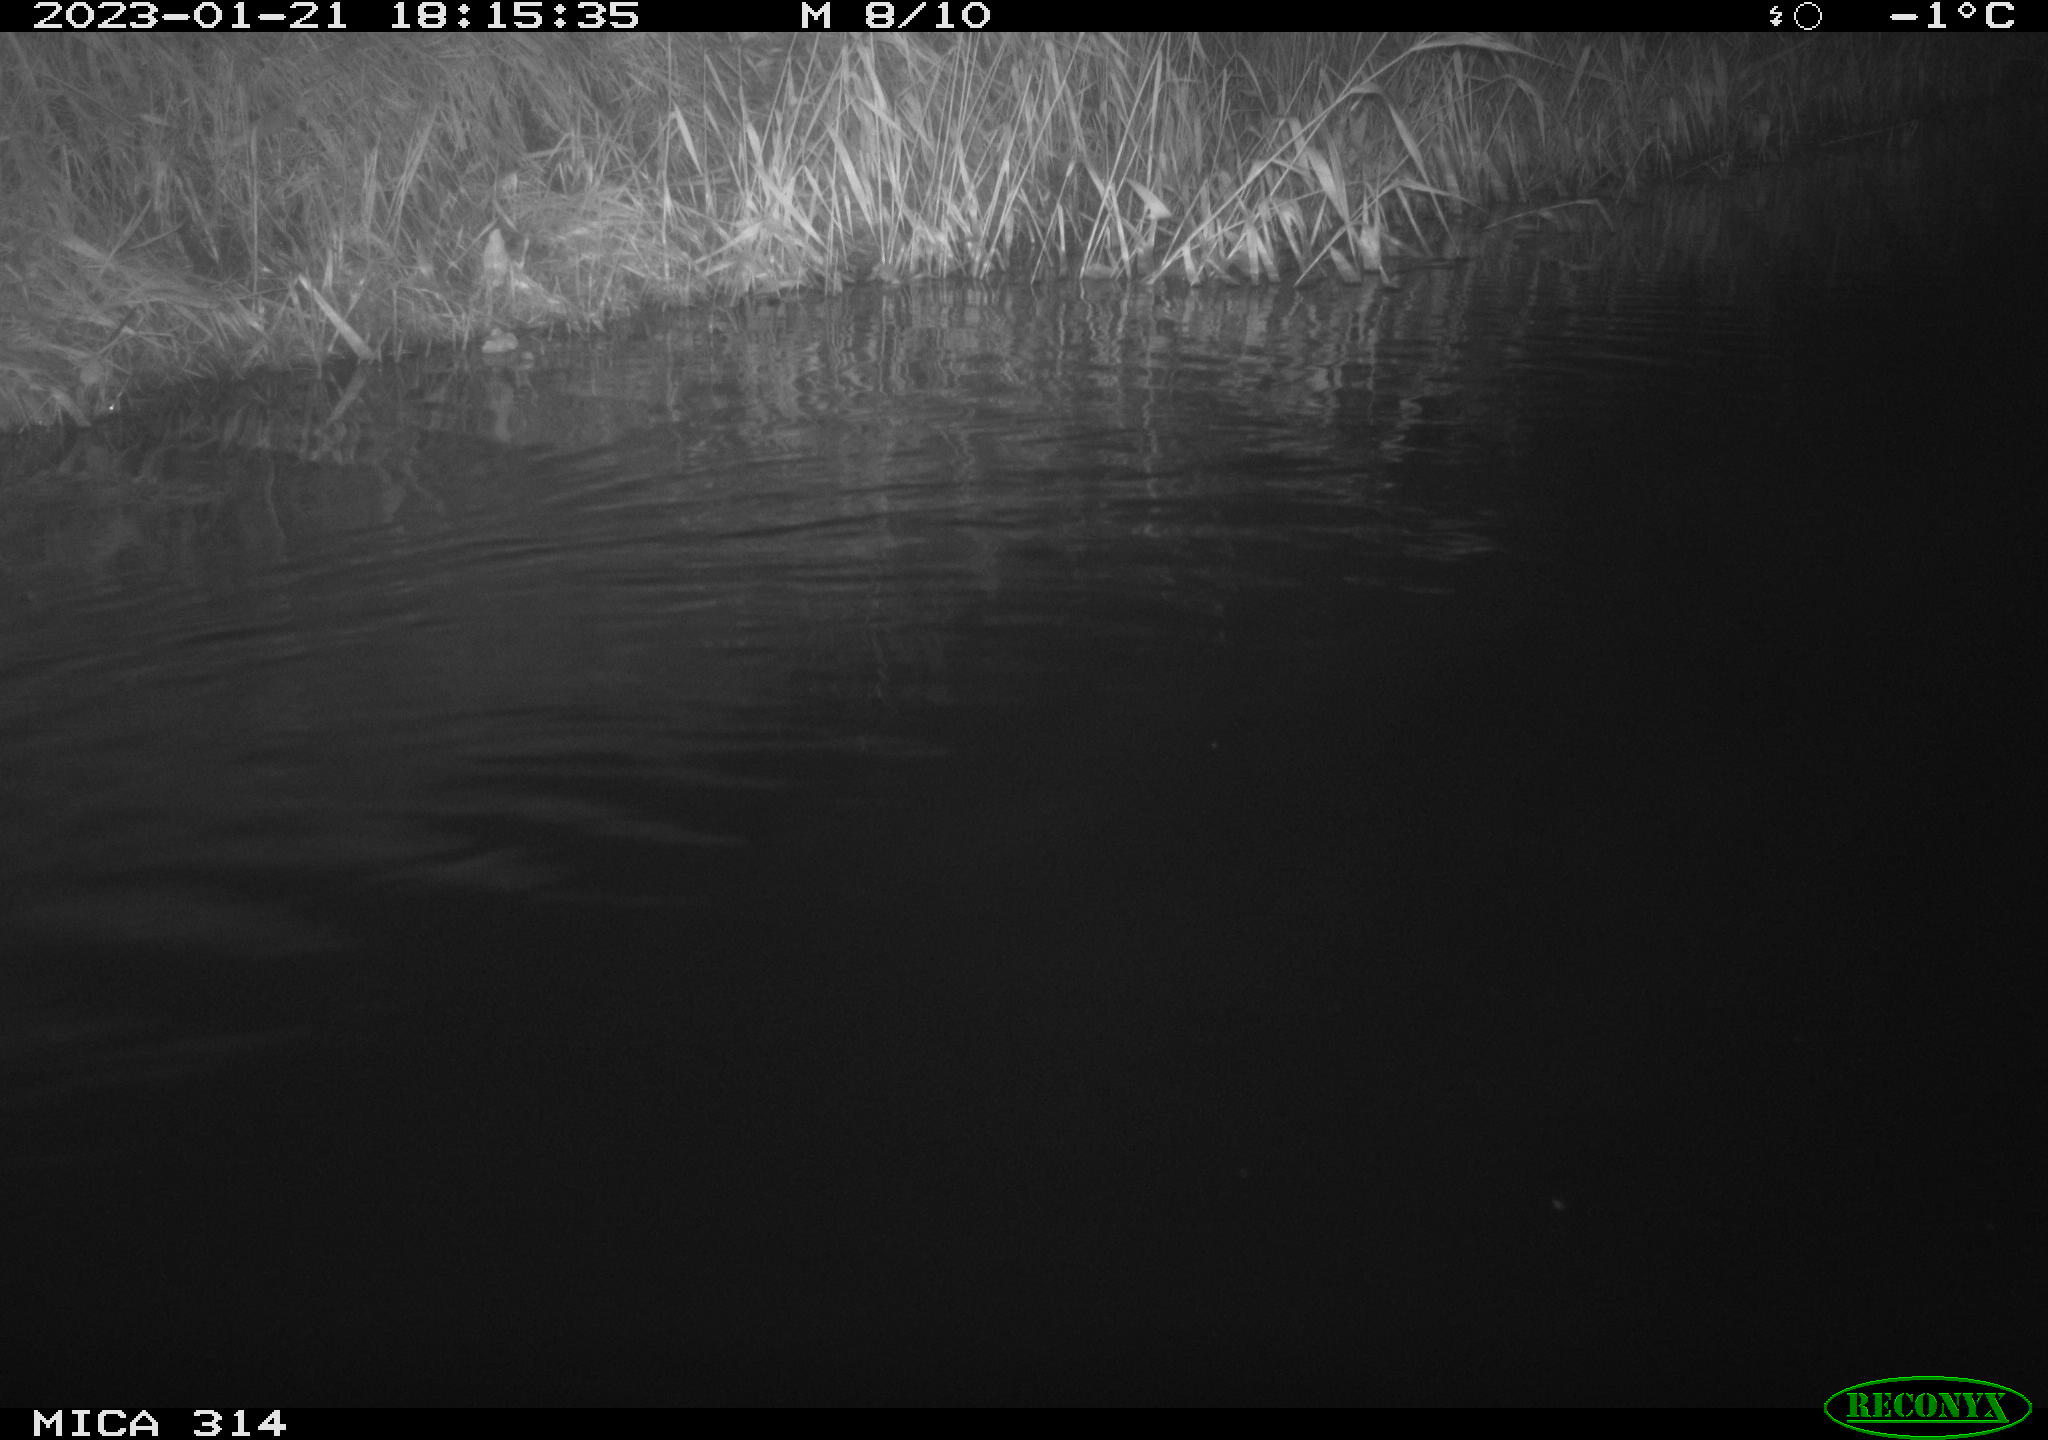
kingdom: Animalia
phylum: Chordata
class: Mammalia
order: Rodentia
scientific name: Rodentia
